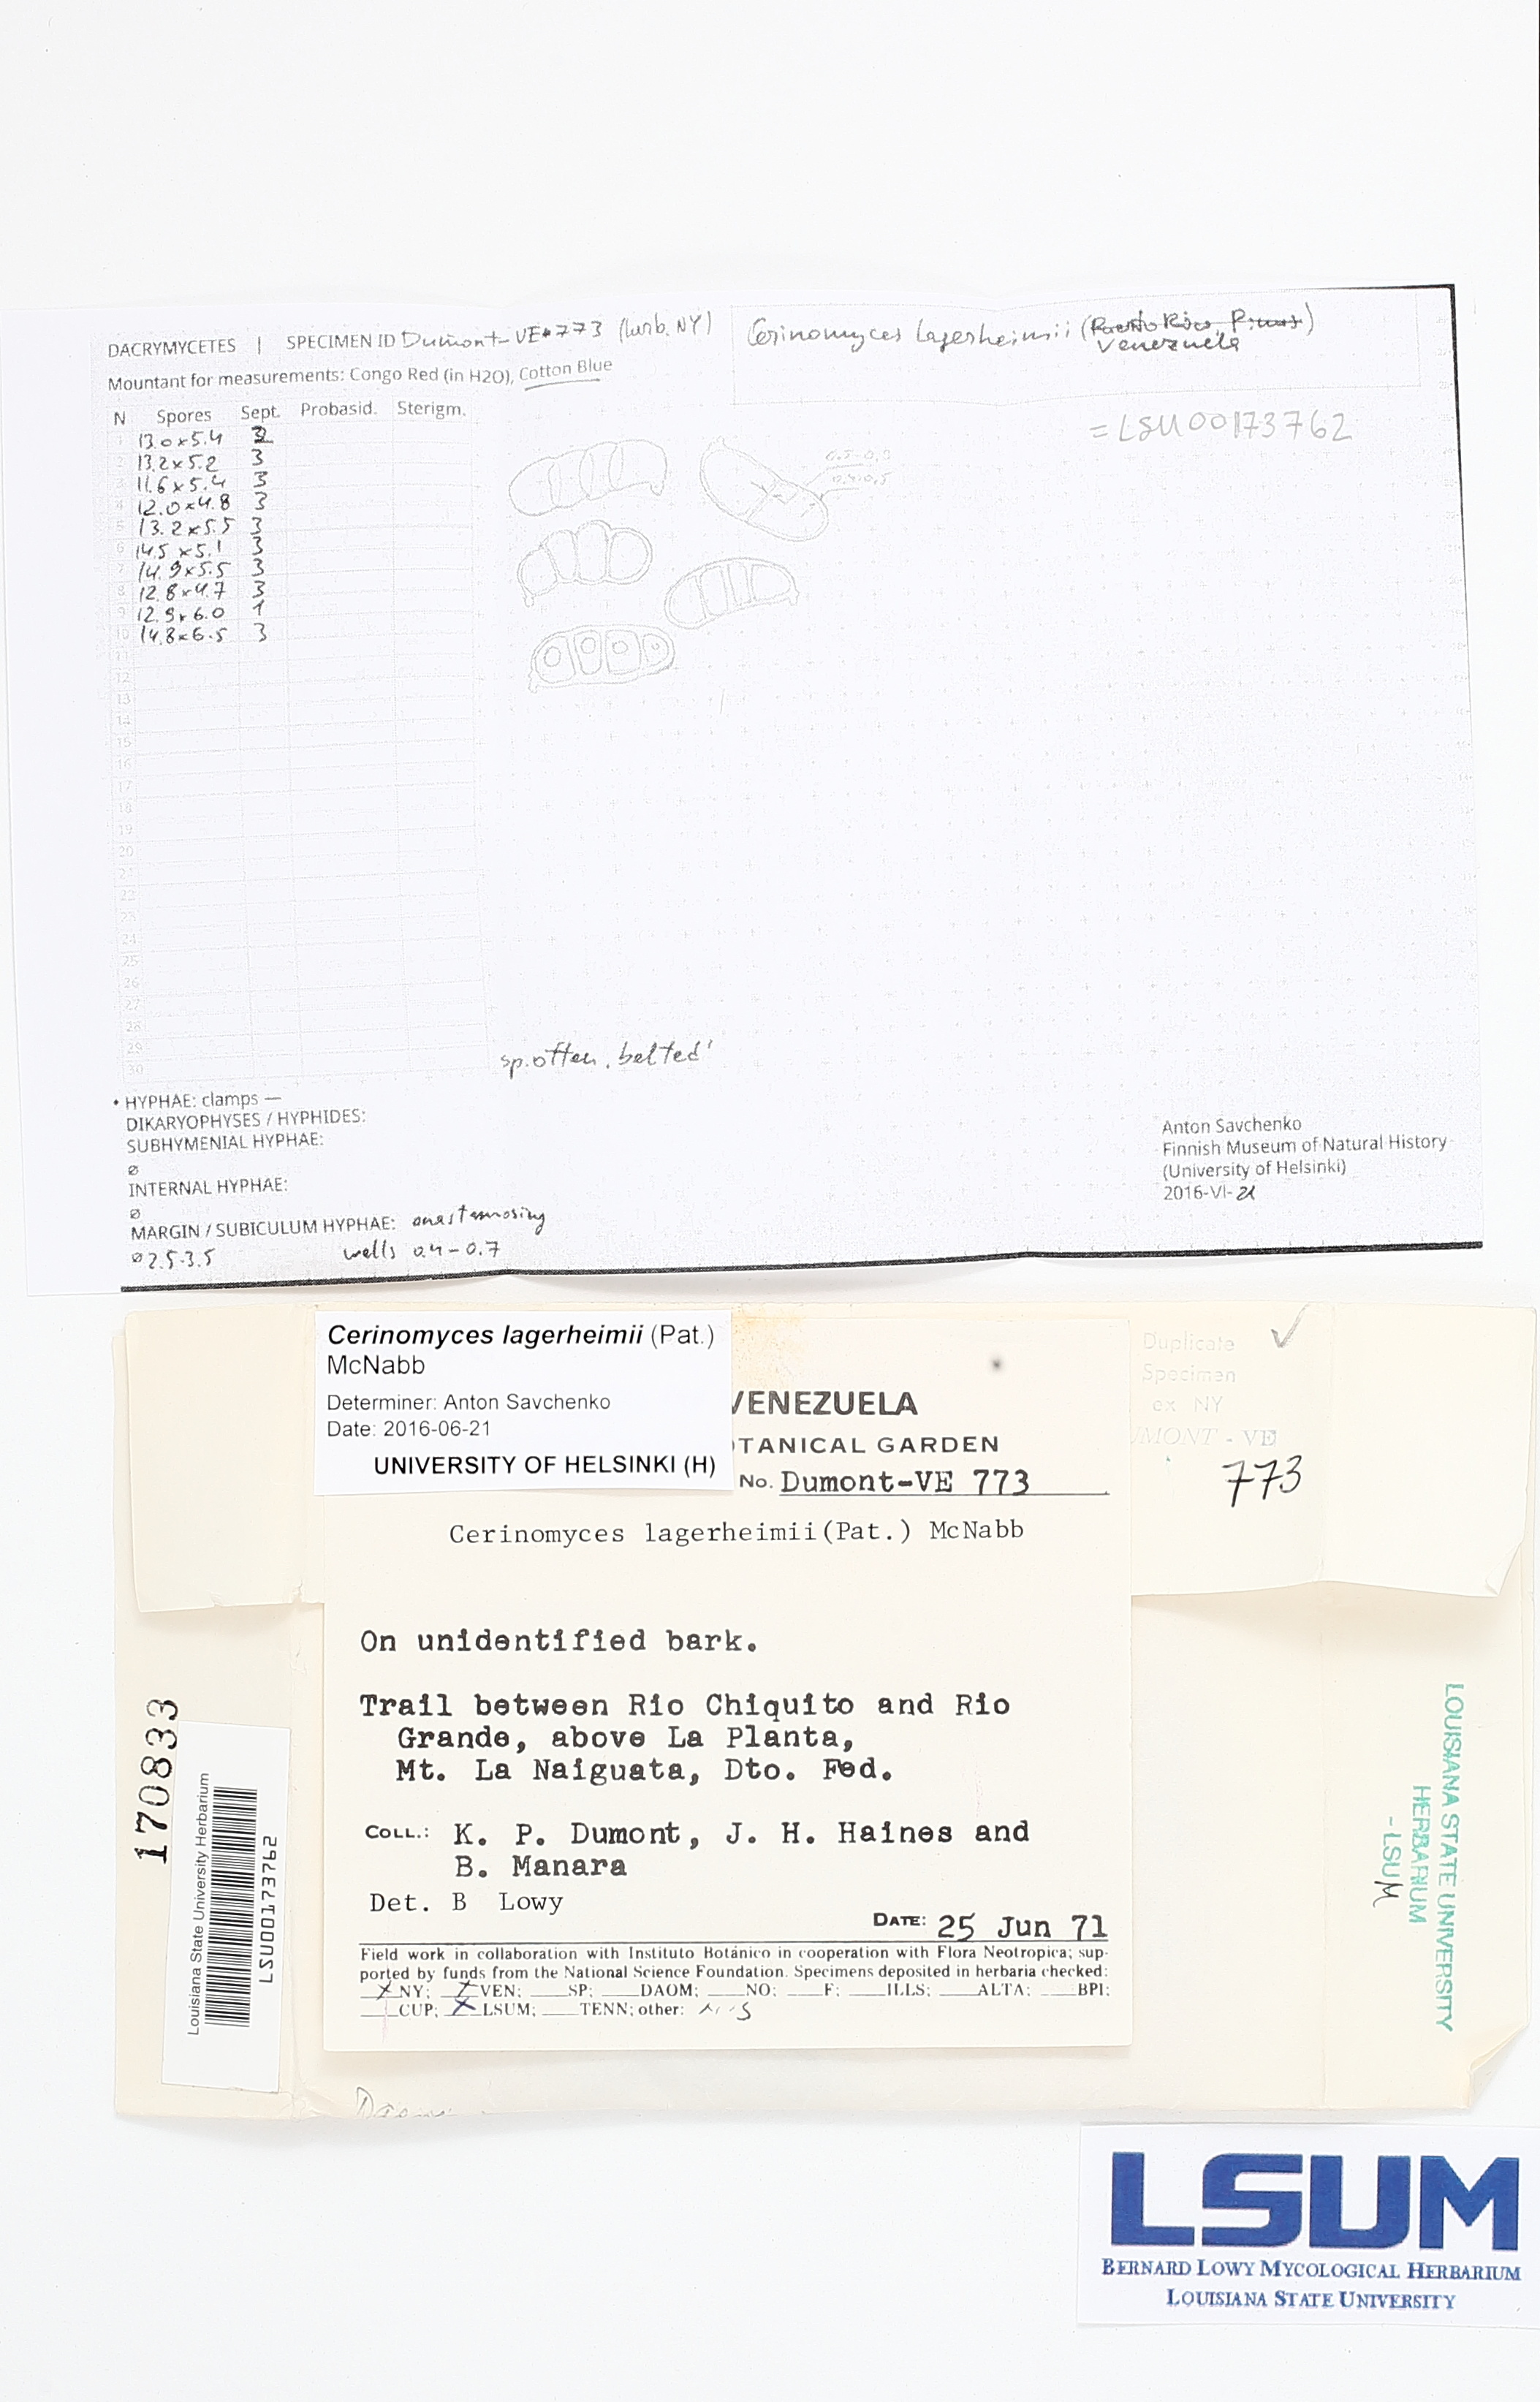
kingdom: Fungi
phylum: Basidiomycota
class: Dacrymycetes
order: Dacrymycetales
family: Dacrymycetaceae
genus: Dacrymyces
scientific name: Dacrymyces lagerheimii
